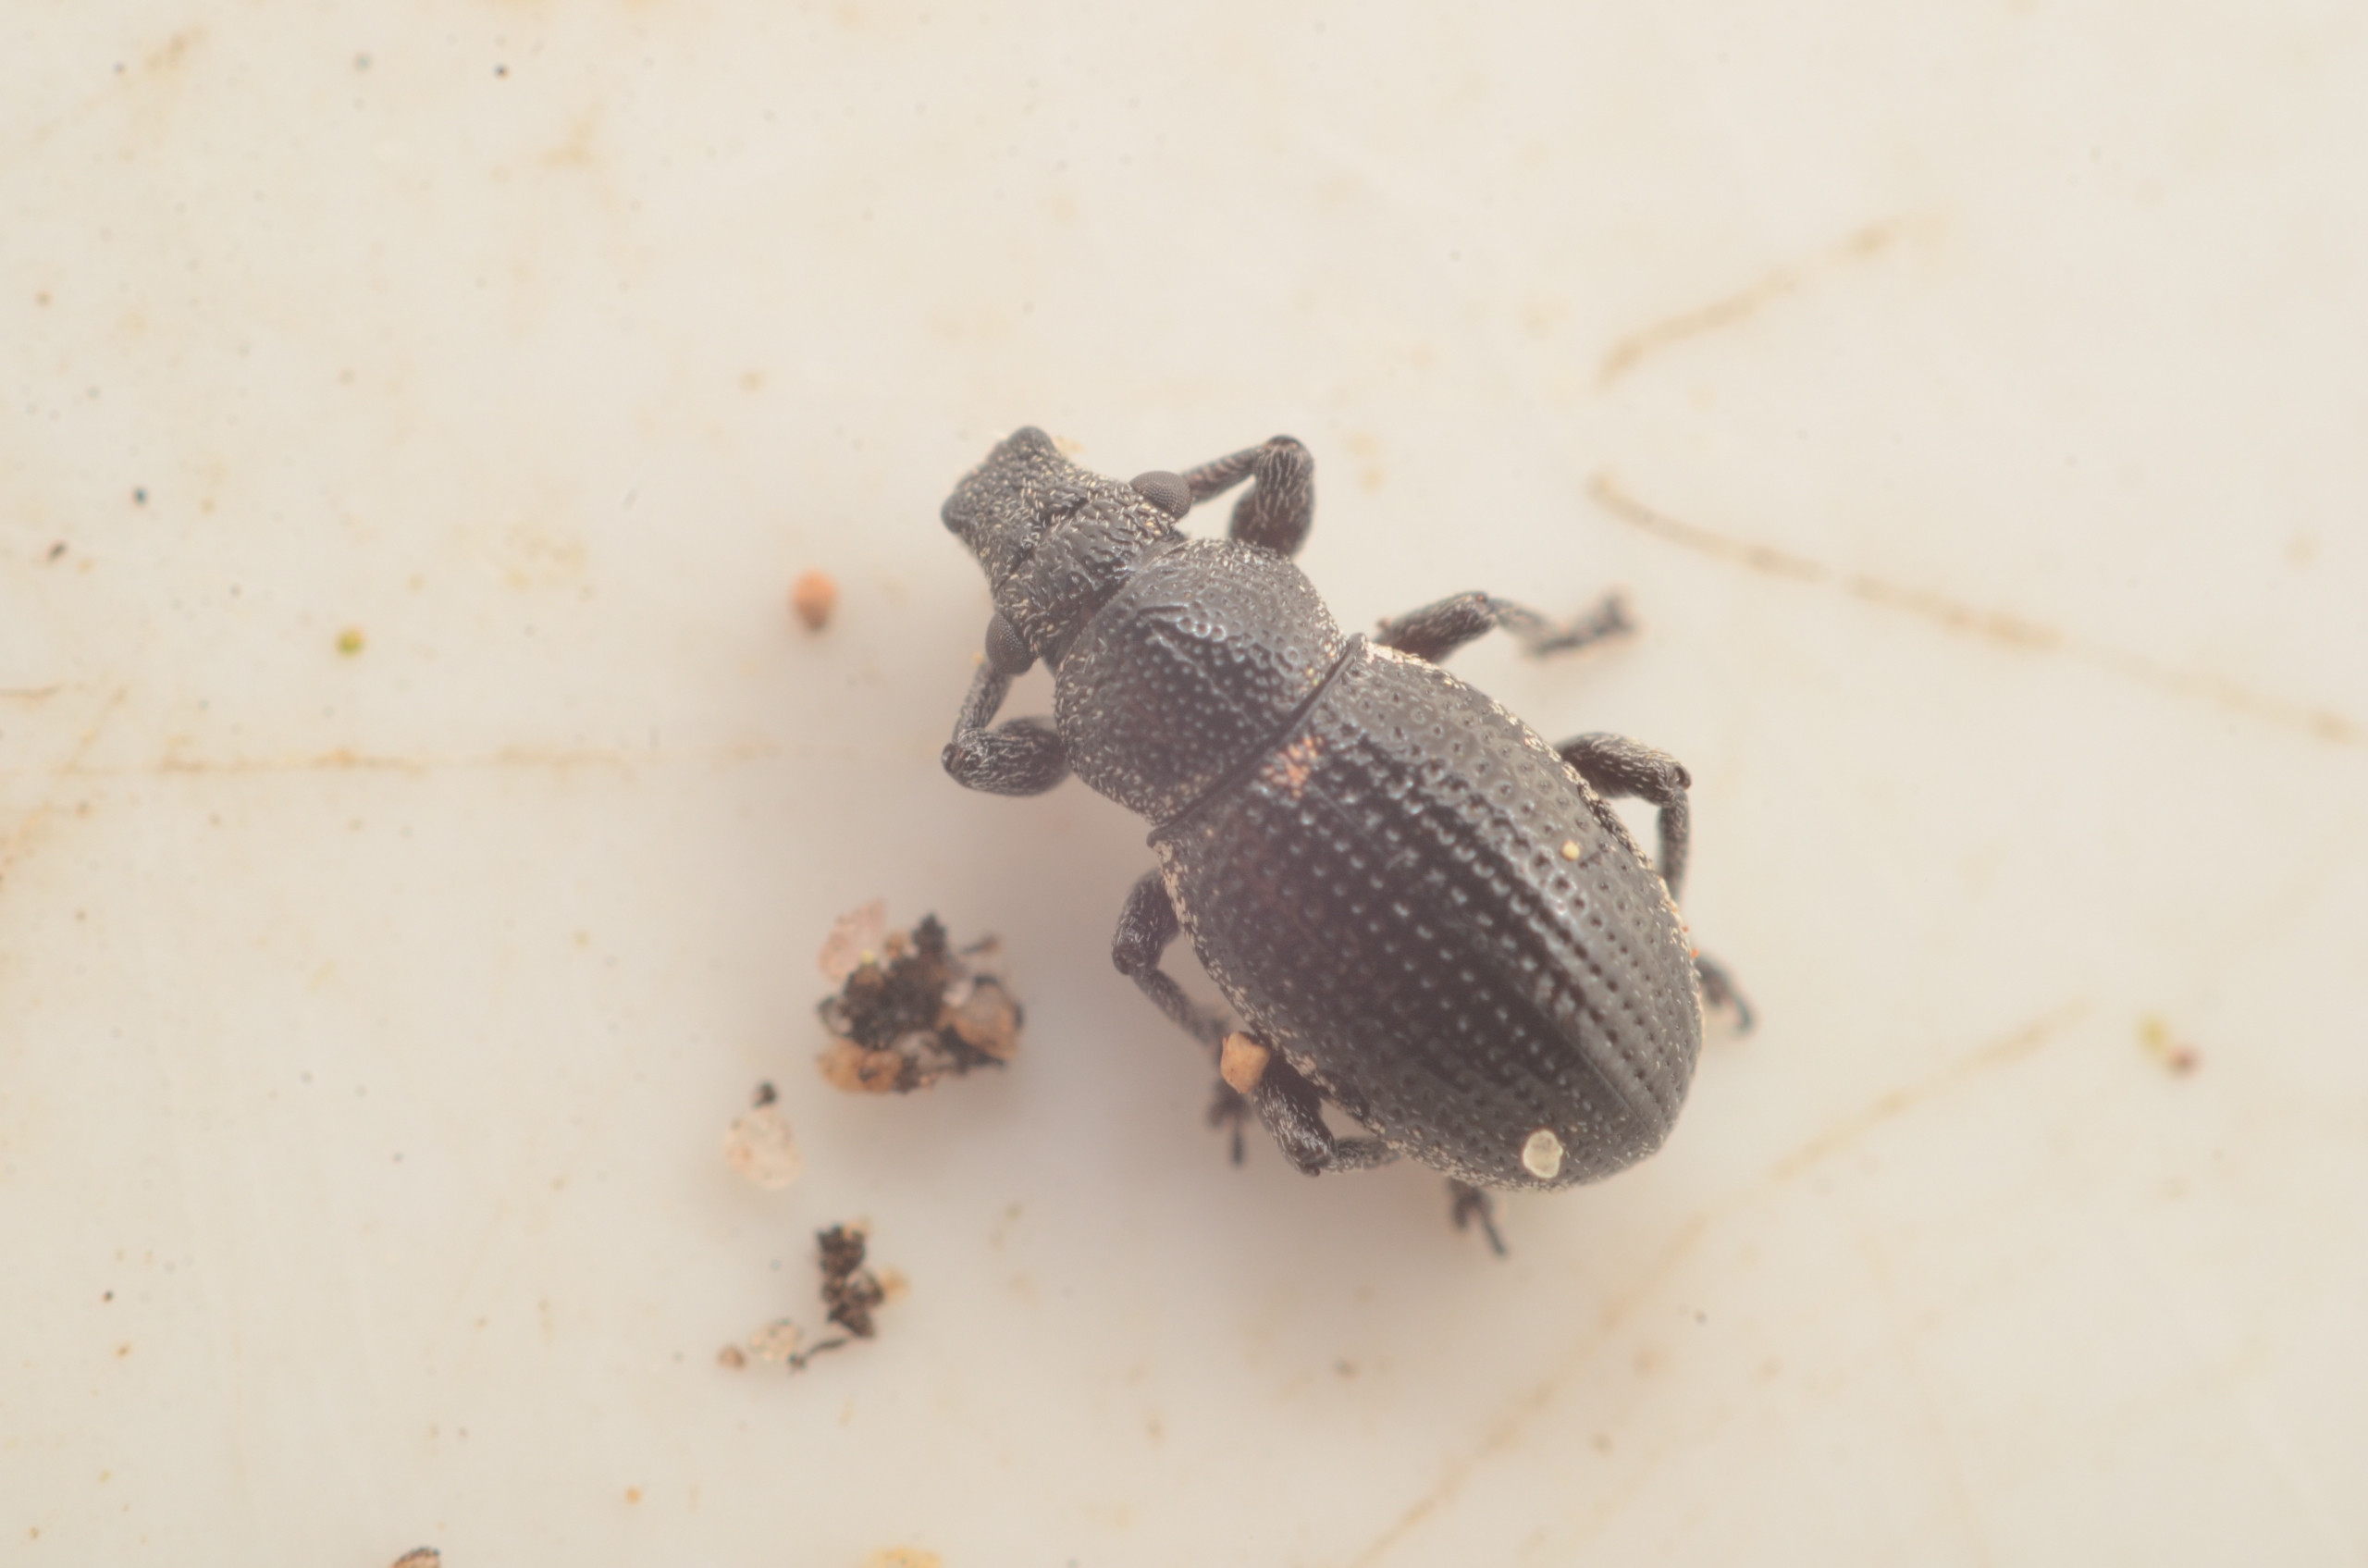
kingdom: Animalia
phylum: Arthropoda
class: Insecta
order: Coleoptera
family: Curculionidae
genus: Strophosoma
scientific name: Strophosoma sus
